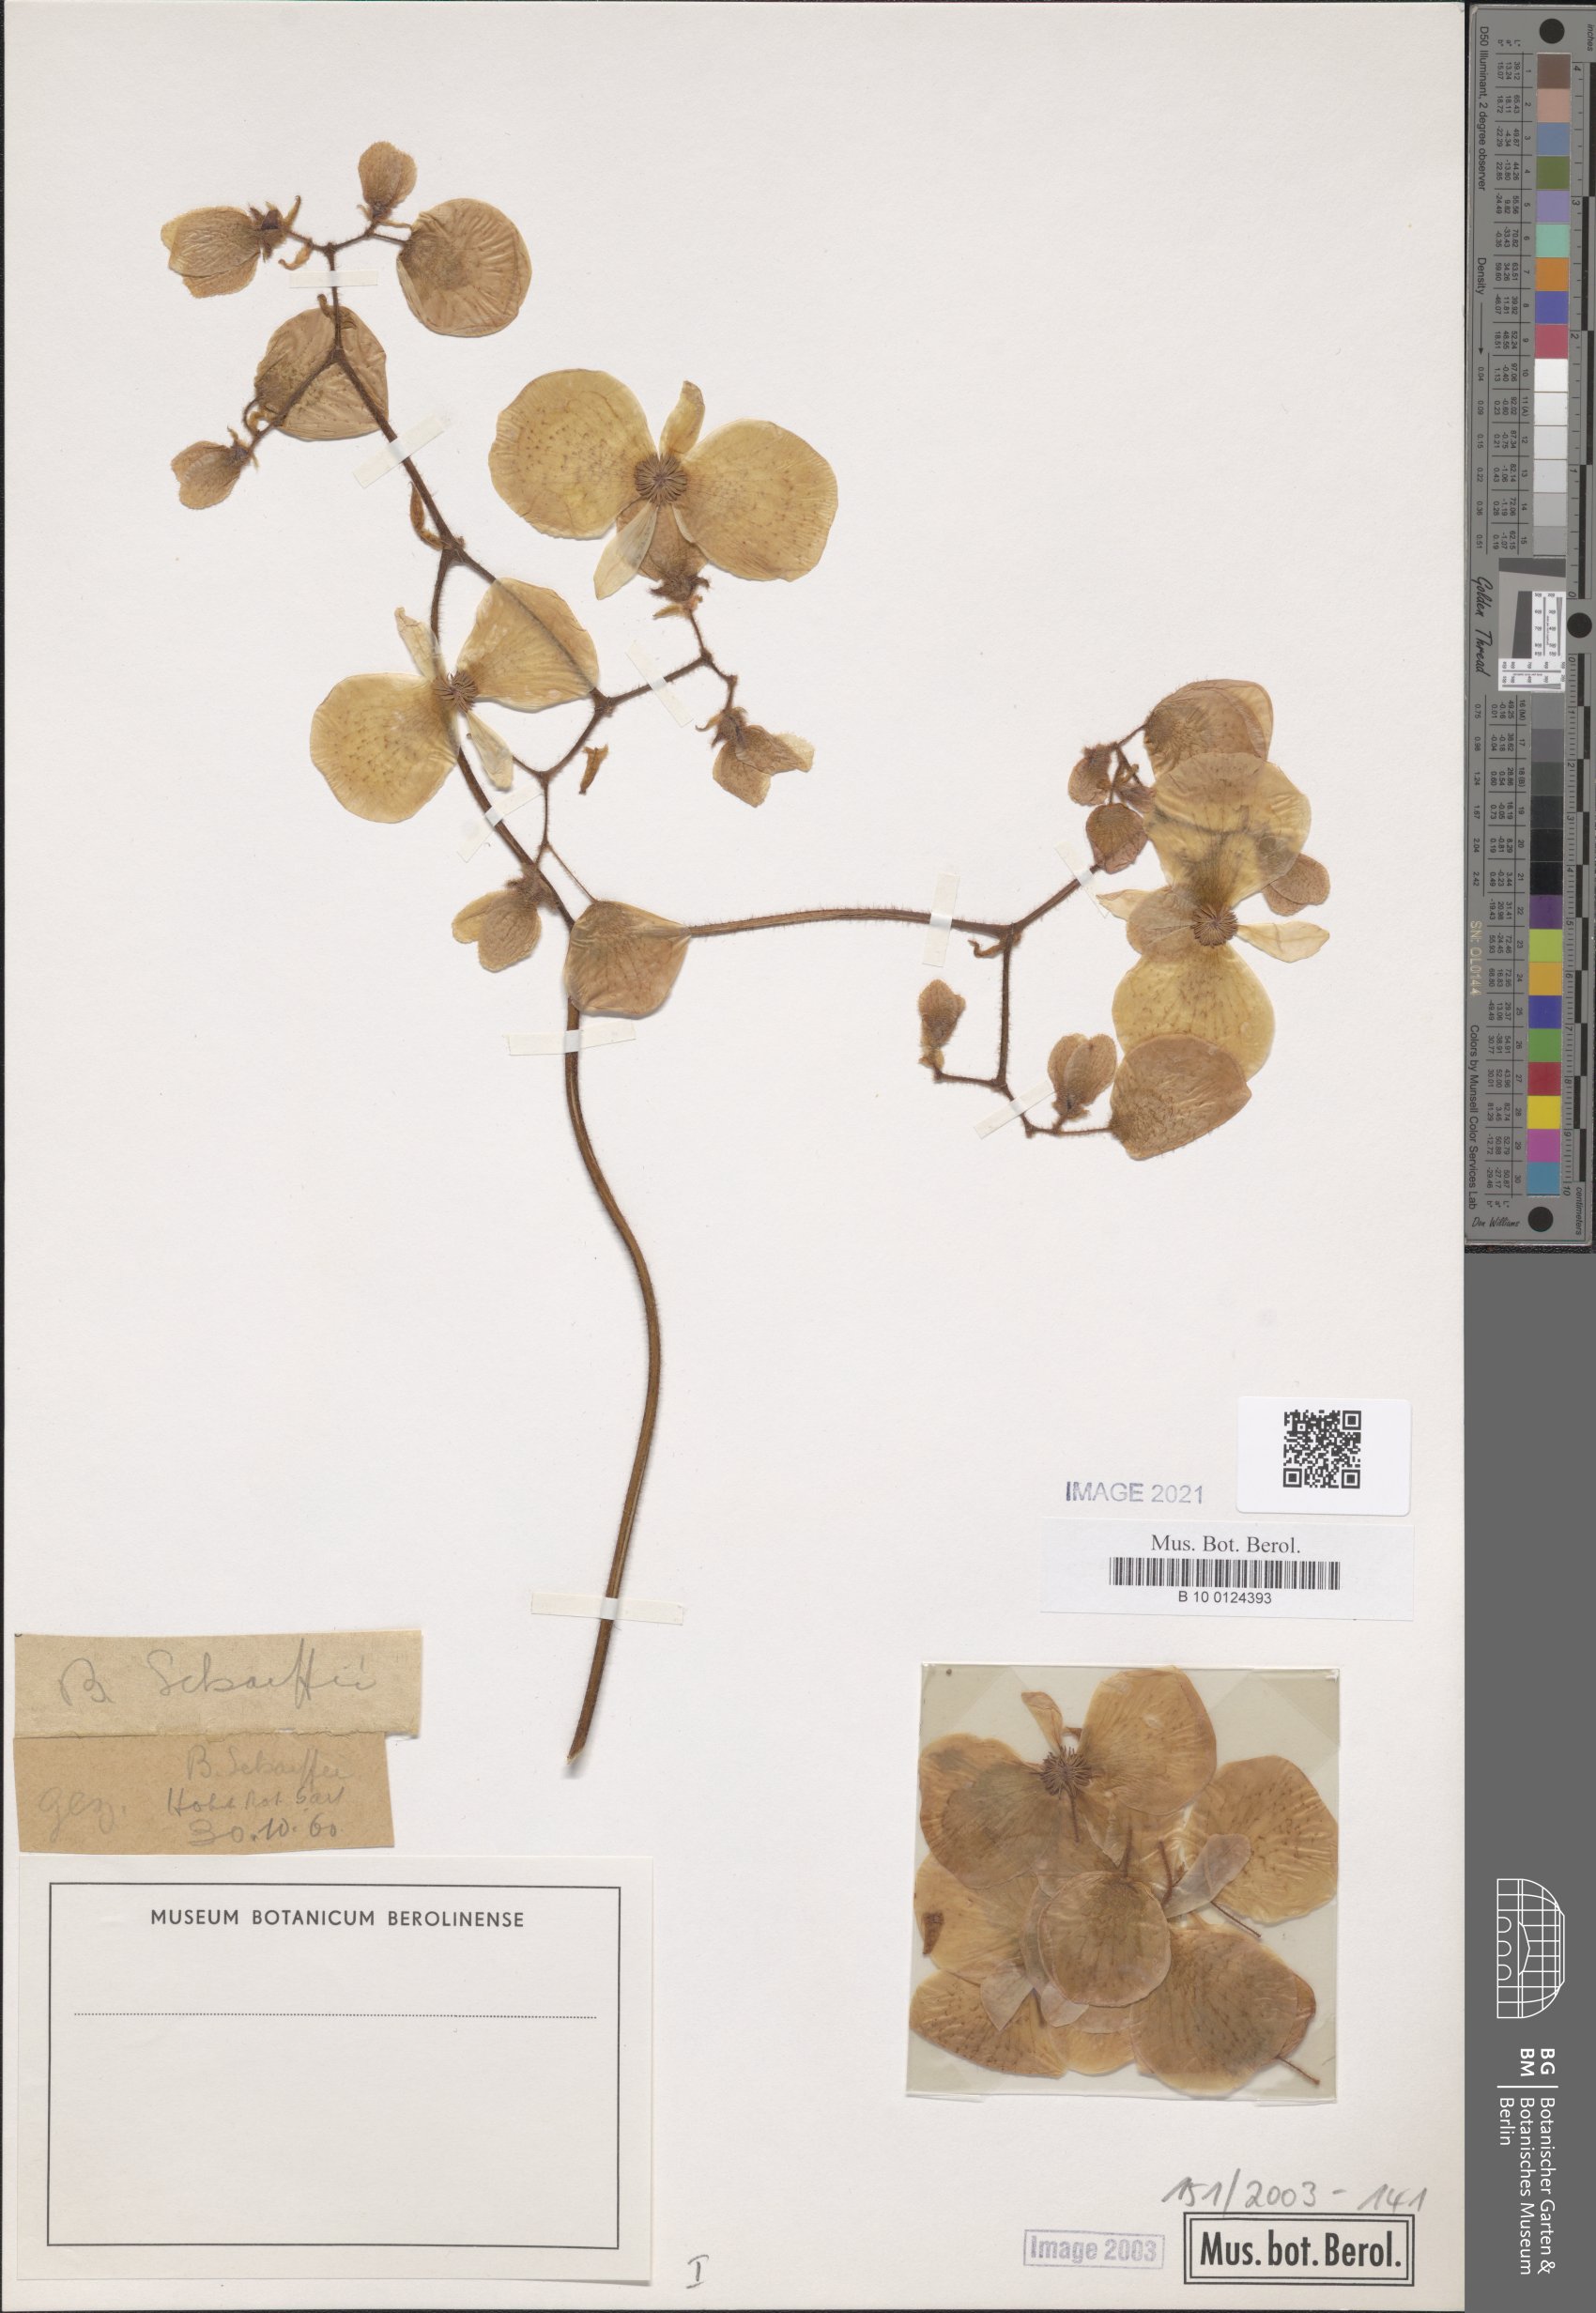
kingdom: Plantae
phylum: Tracheophyta
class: Magnoliopsida
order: Cucurbitales
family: Begoniaceae
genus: Begonia
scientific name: Begonia scharffiana
